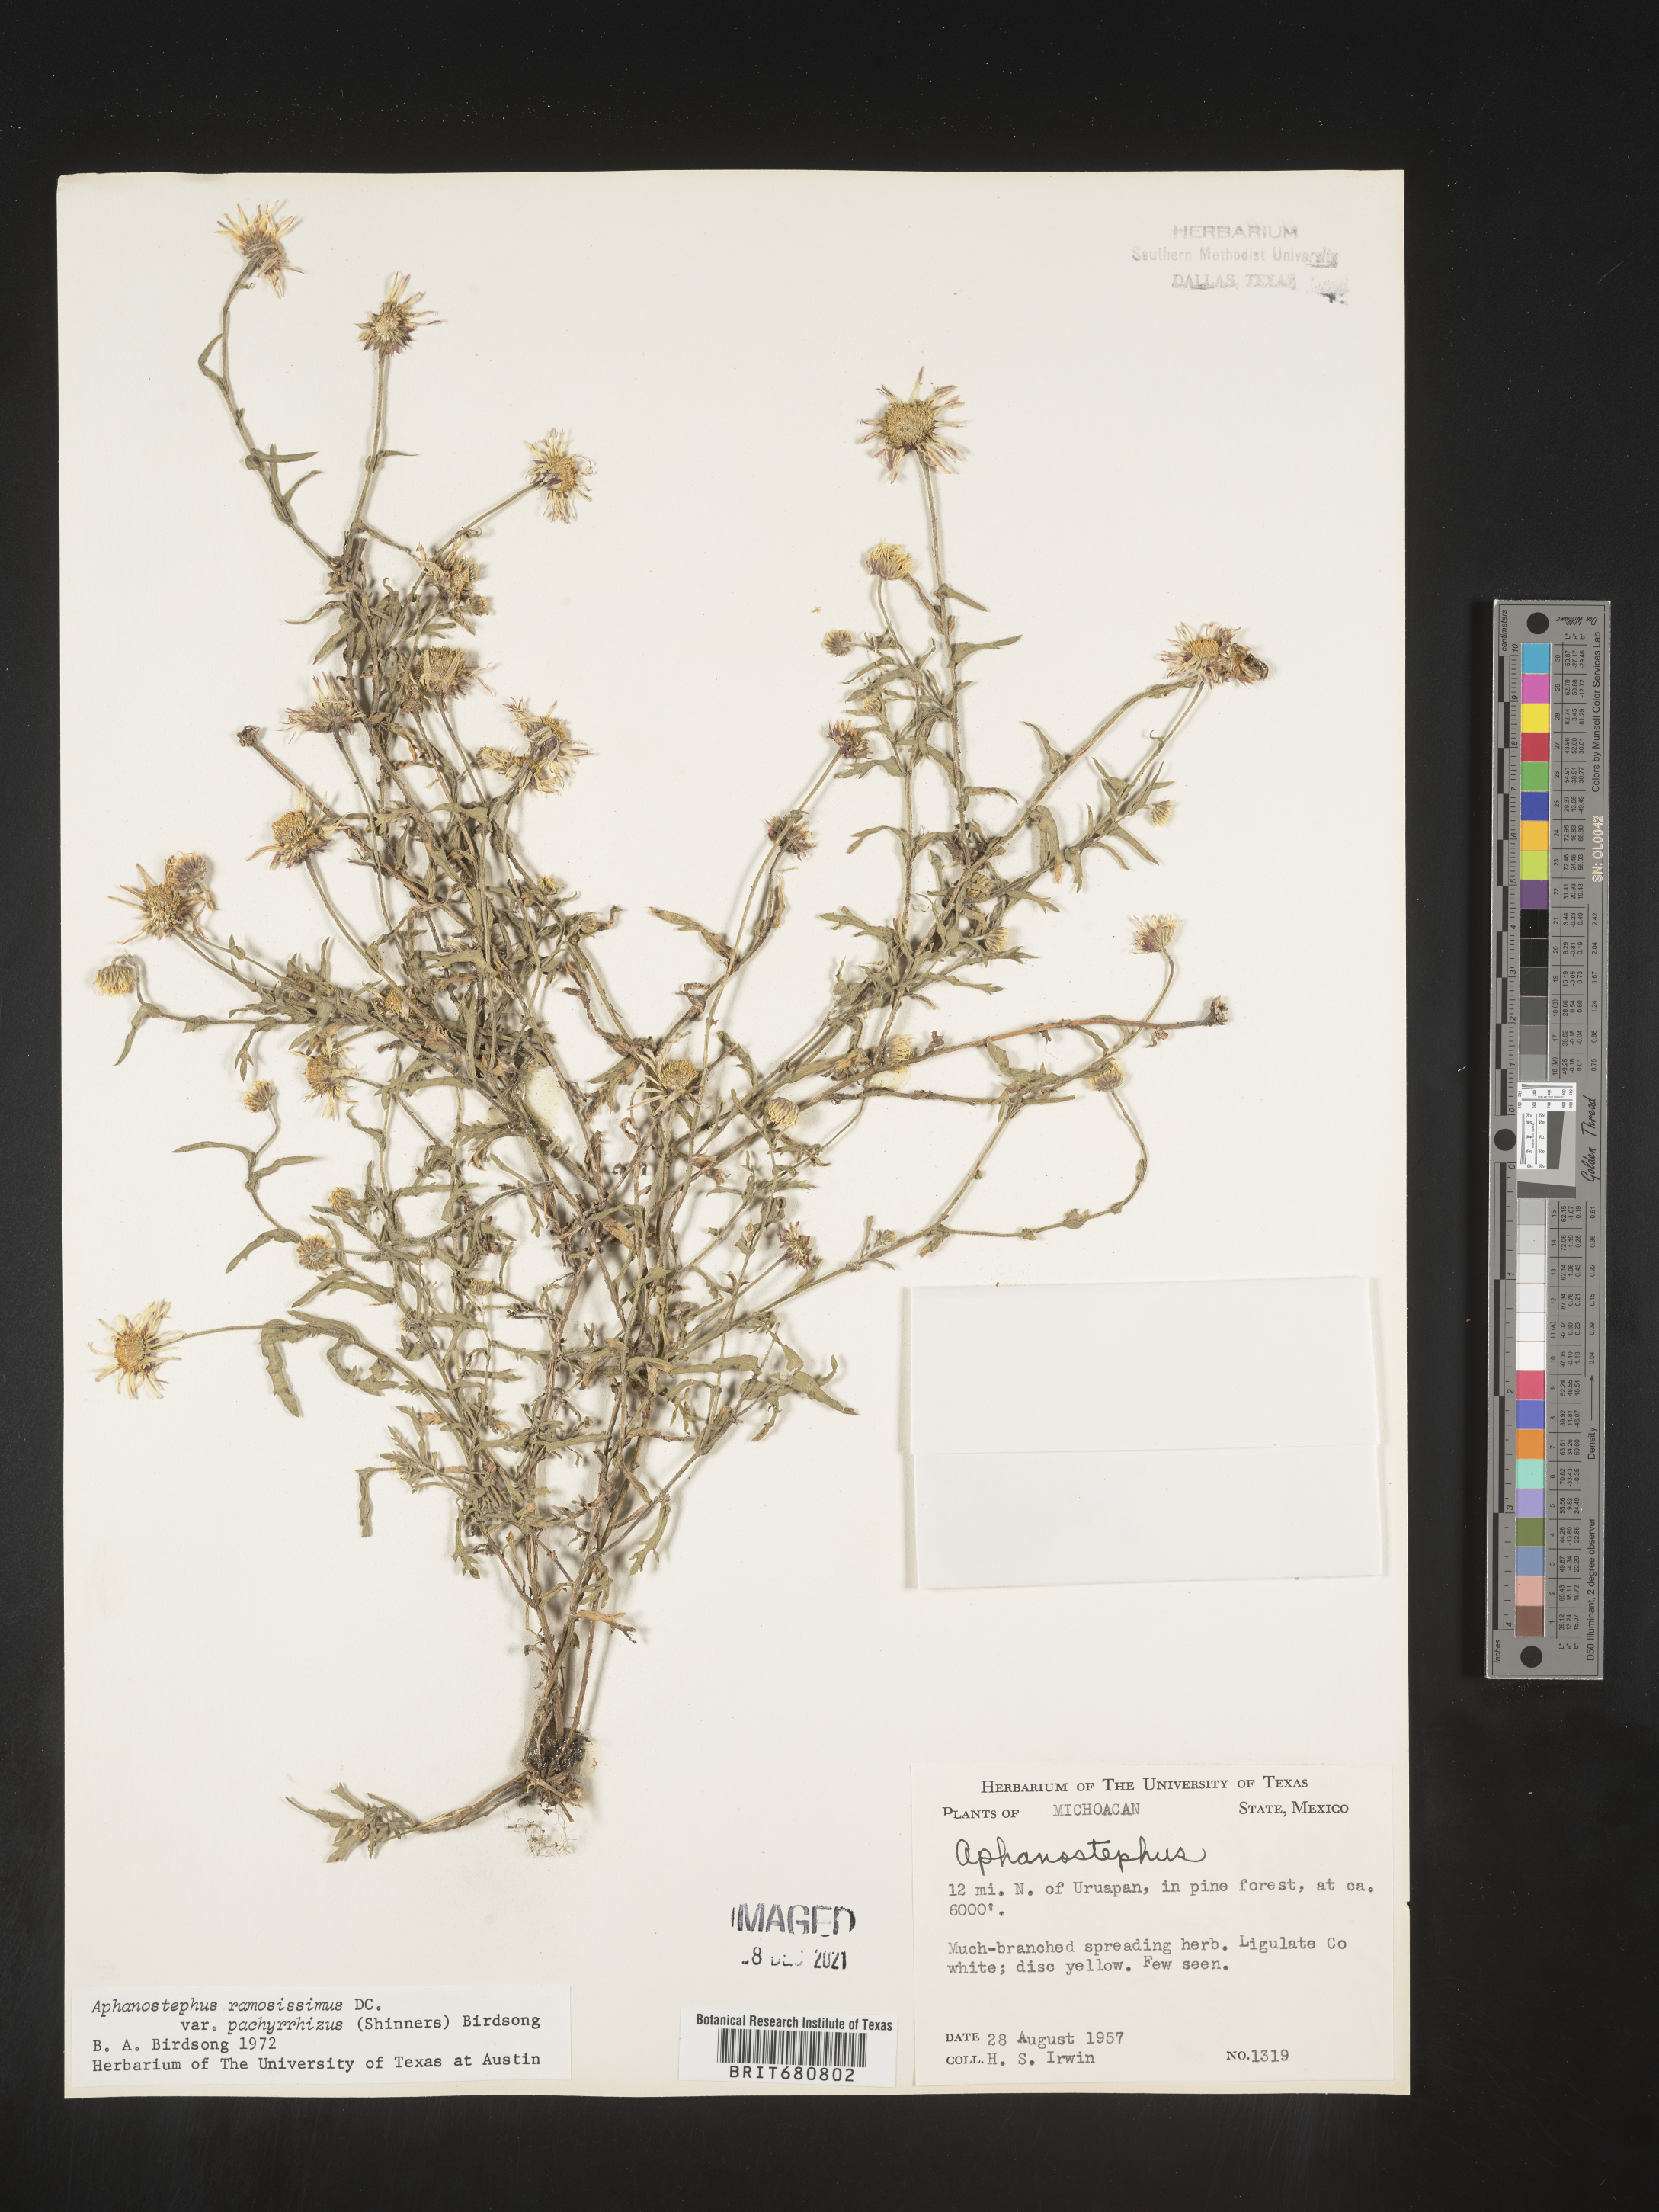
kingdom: Plantae
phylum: Tracheophyta
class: Magnoliopsida
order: Asterales
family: Asteraceae
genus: Aphanostephus
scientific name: Aphanostephus ramosissimus
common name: Plains lazy daisy
